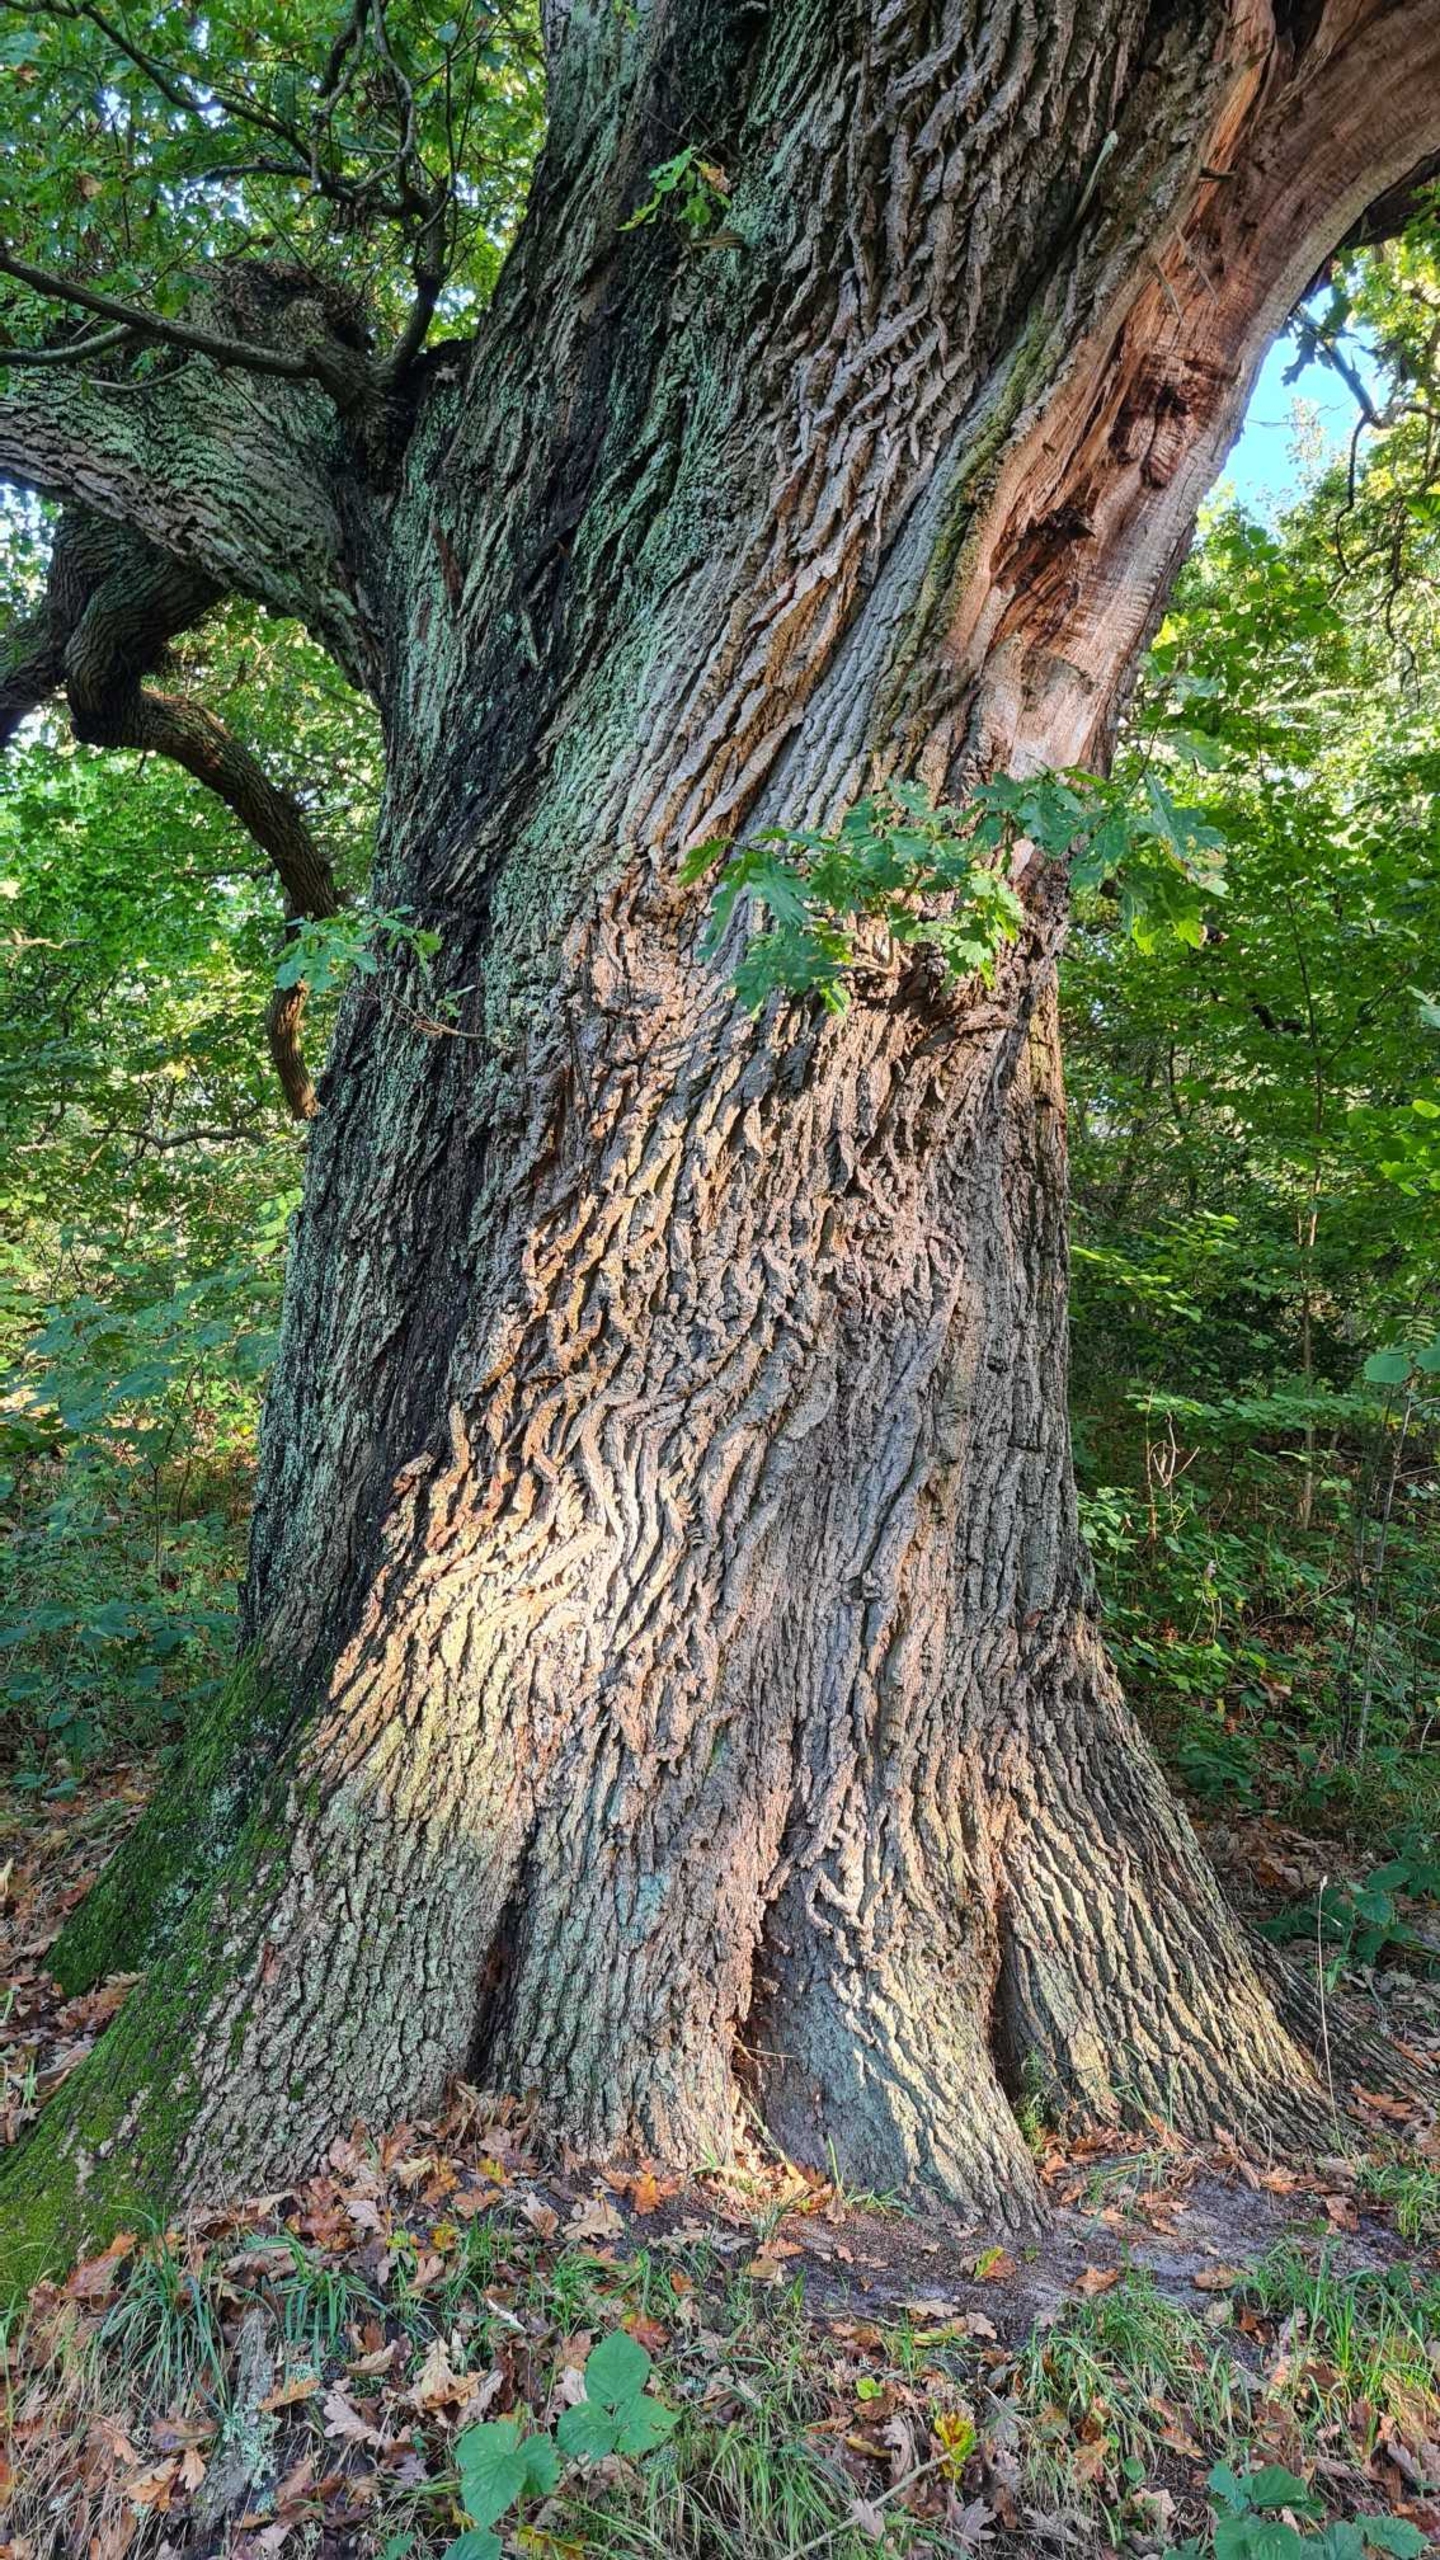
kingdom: Plantae
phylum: Tracheophyta
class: Magnoliopsida
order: Fagales
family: Fagaceae
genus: Quercus
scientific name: Quercus robur
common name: Stilk-eg/almindelig eg
